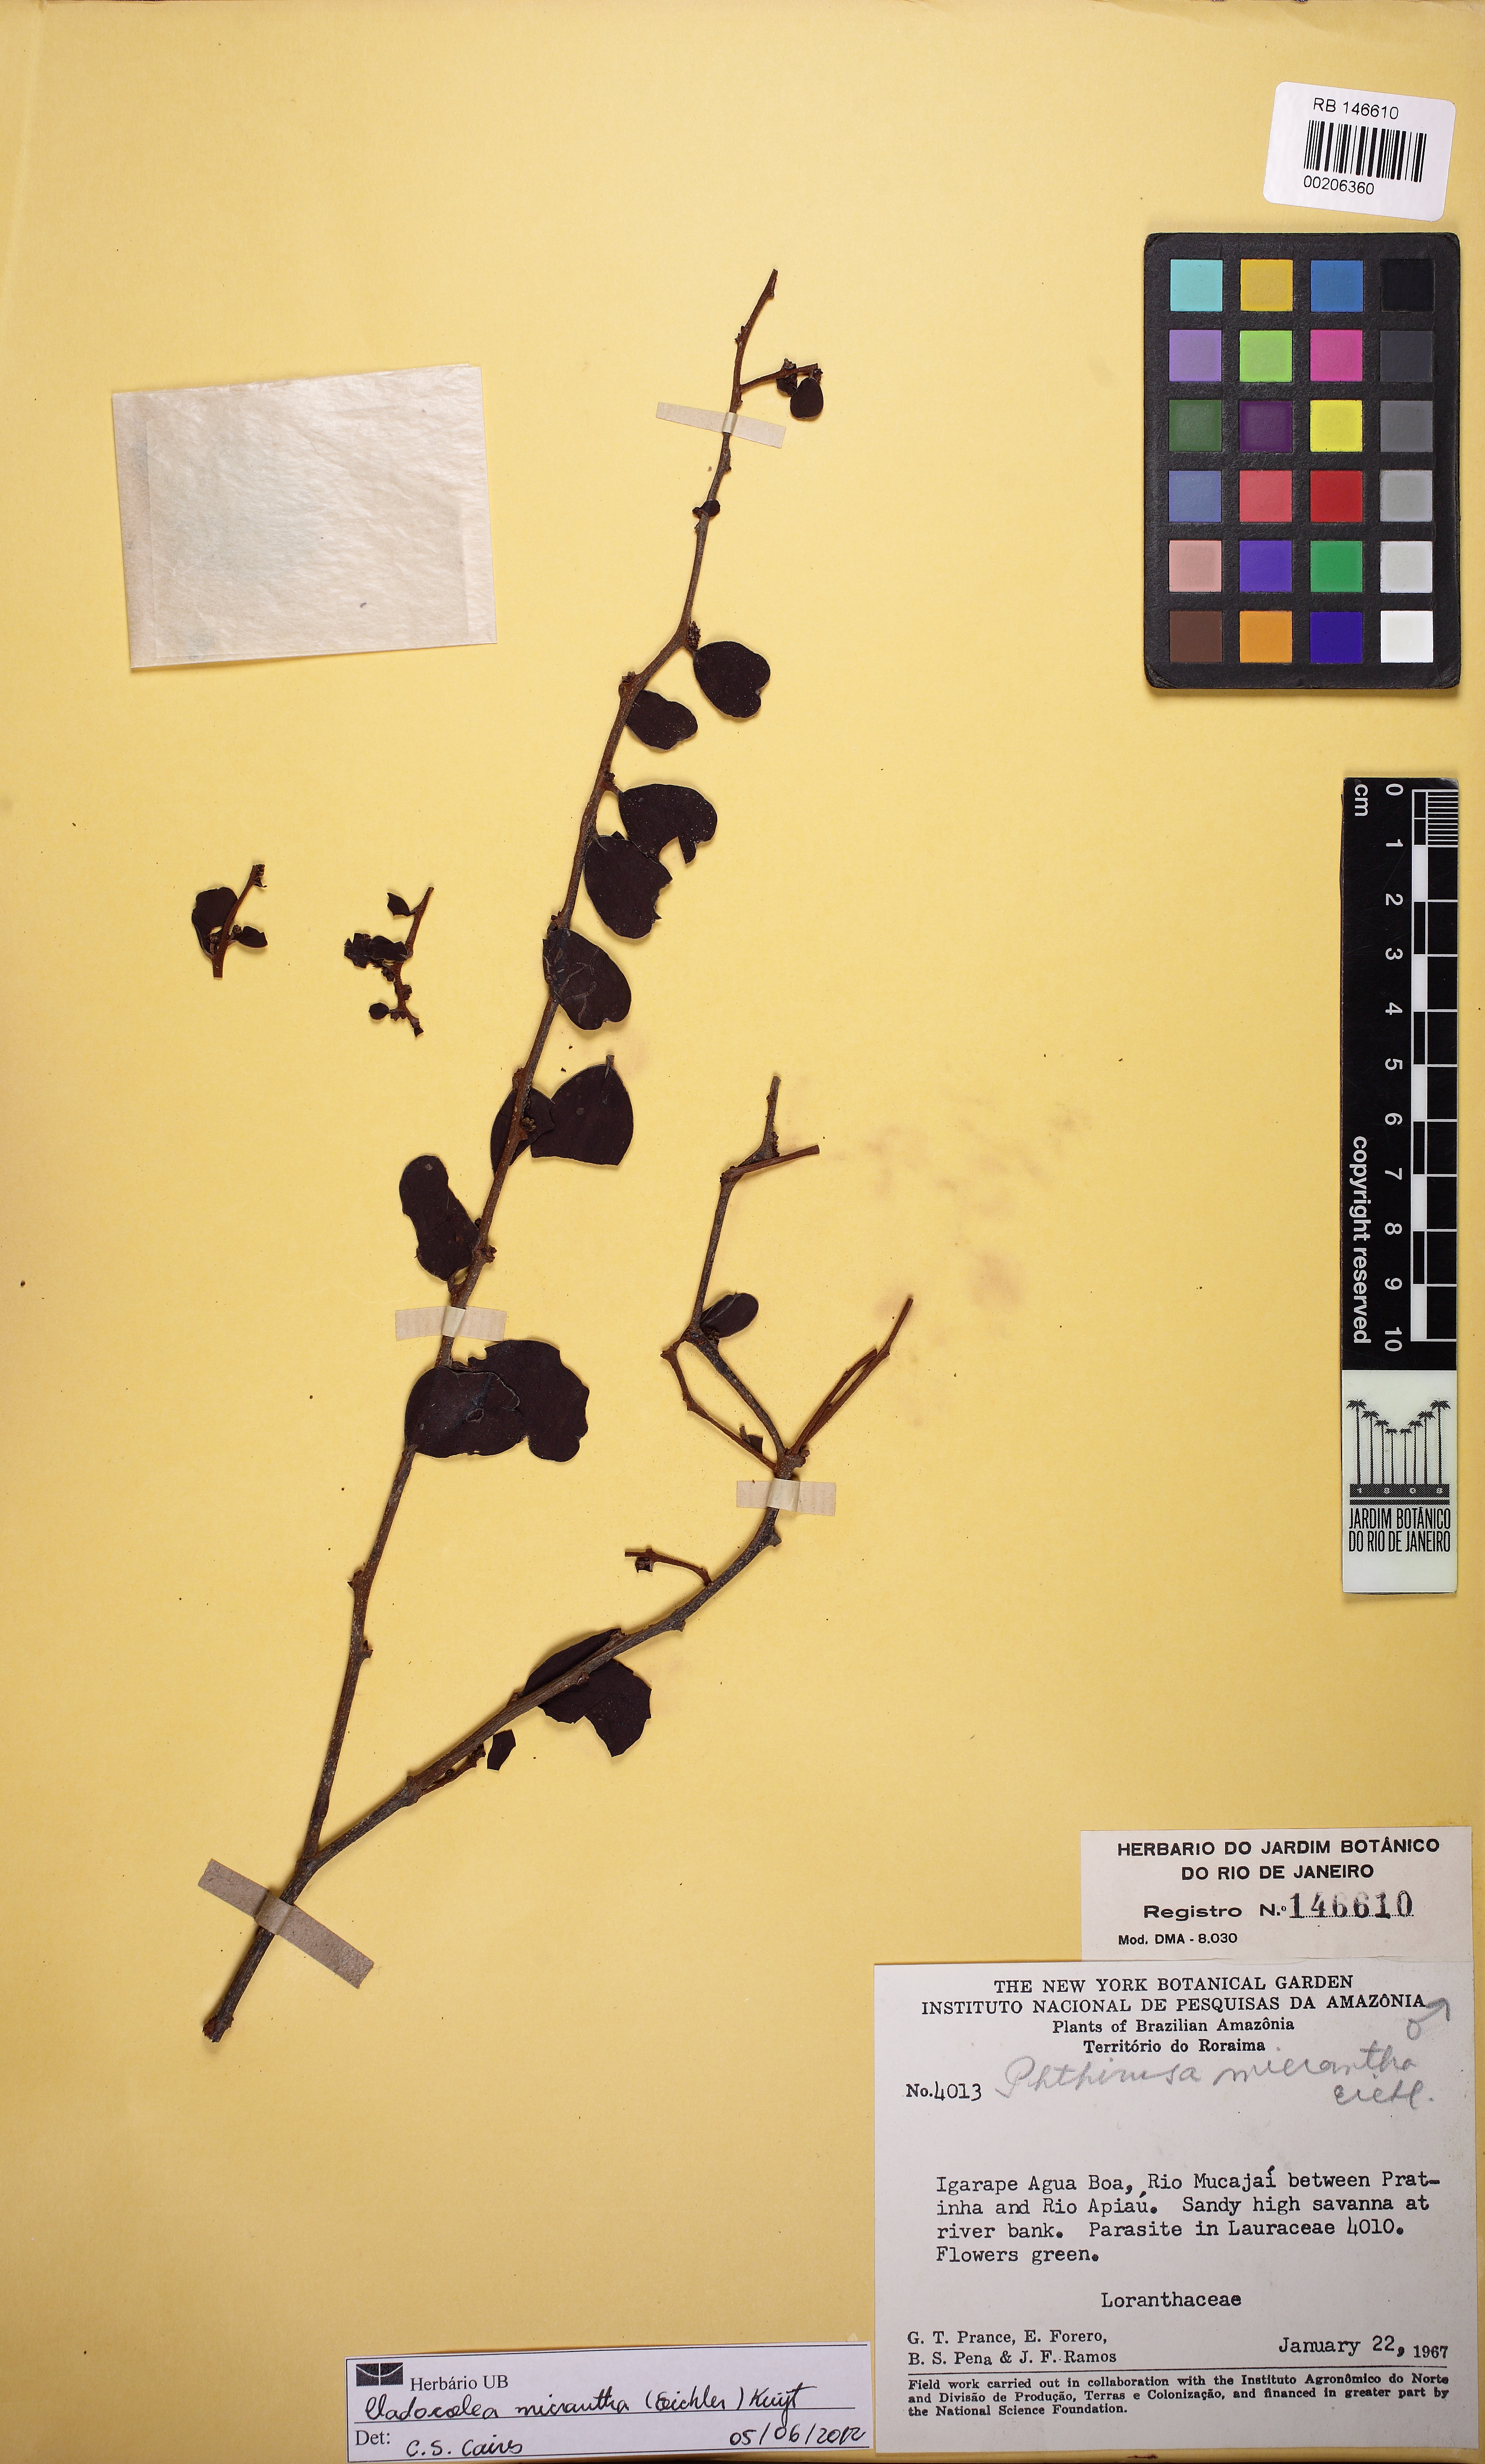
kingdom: Plantae
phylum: Tracheophyta
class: Magnoliopsida
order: Santalales
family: Loranthaceae
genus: Cladocolea
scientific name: Cladocolea micrantha
